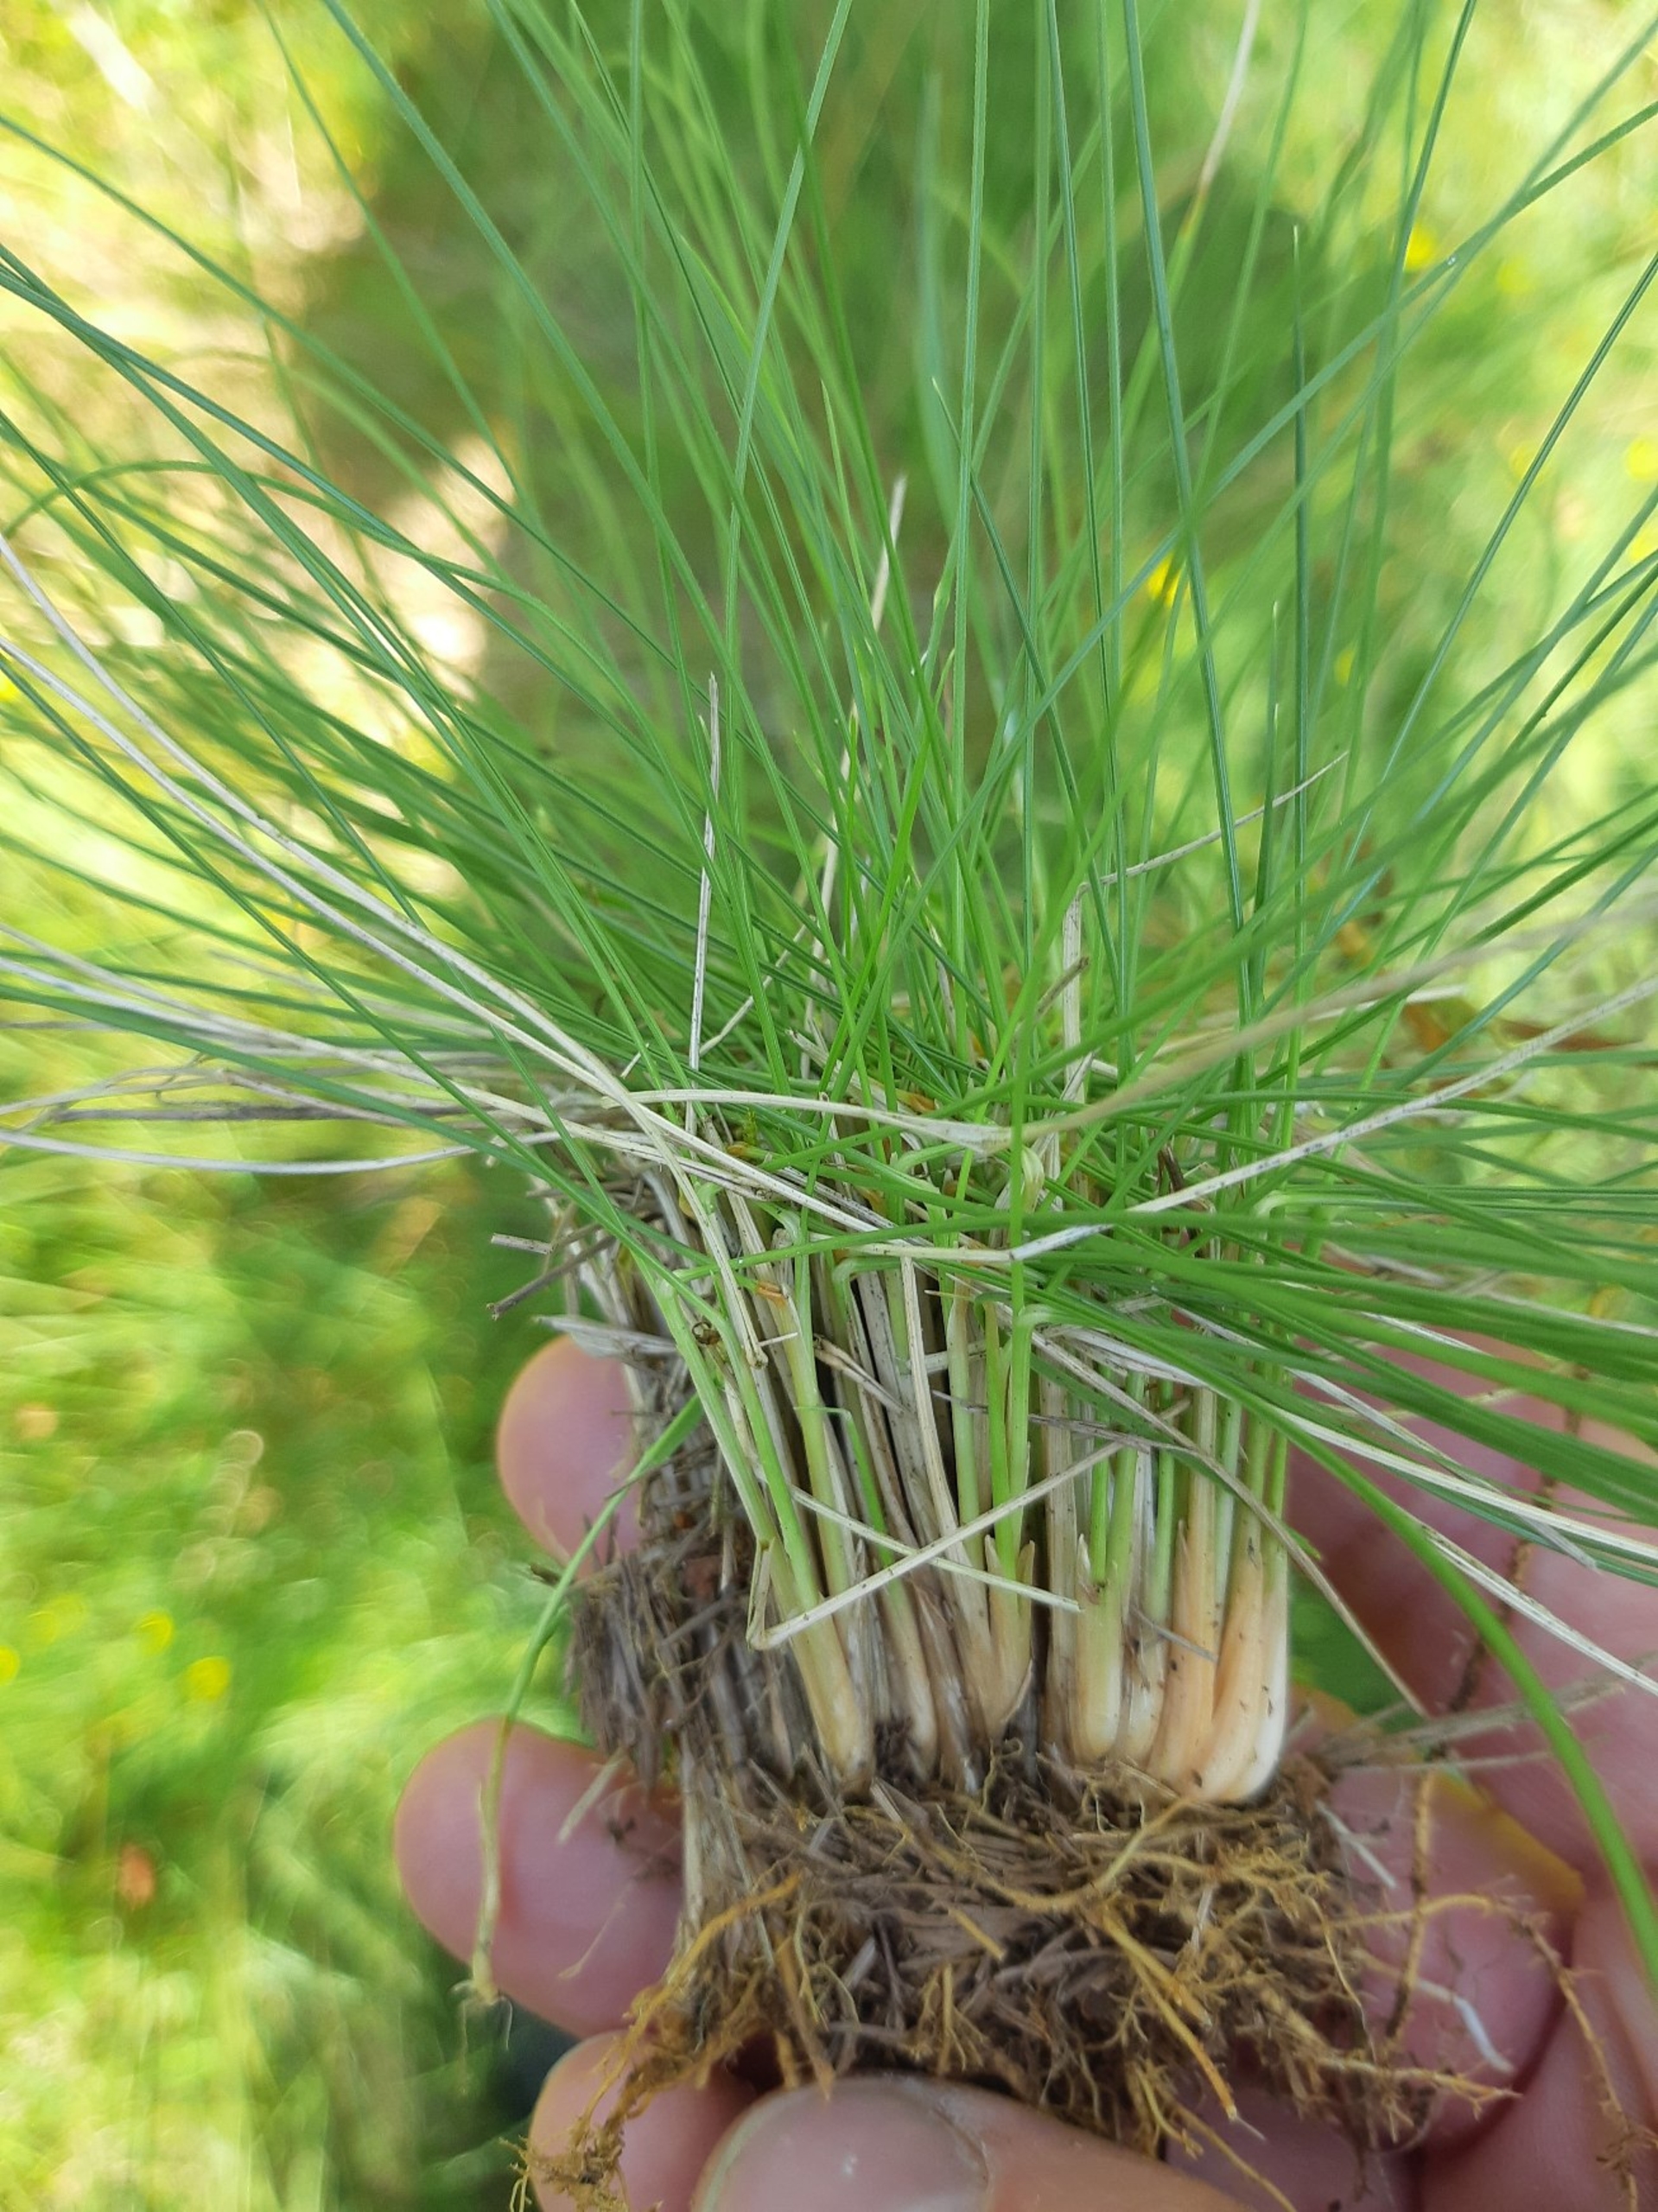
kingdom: Plantae
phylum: Tracheophyta
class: Liliopsida
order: Poales
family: Poaceae
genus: Nardus
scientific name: Nardus stricta
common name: Katteskæg
